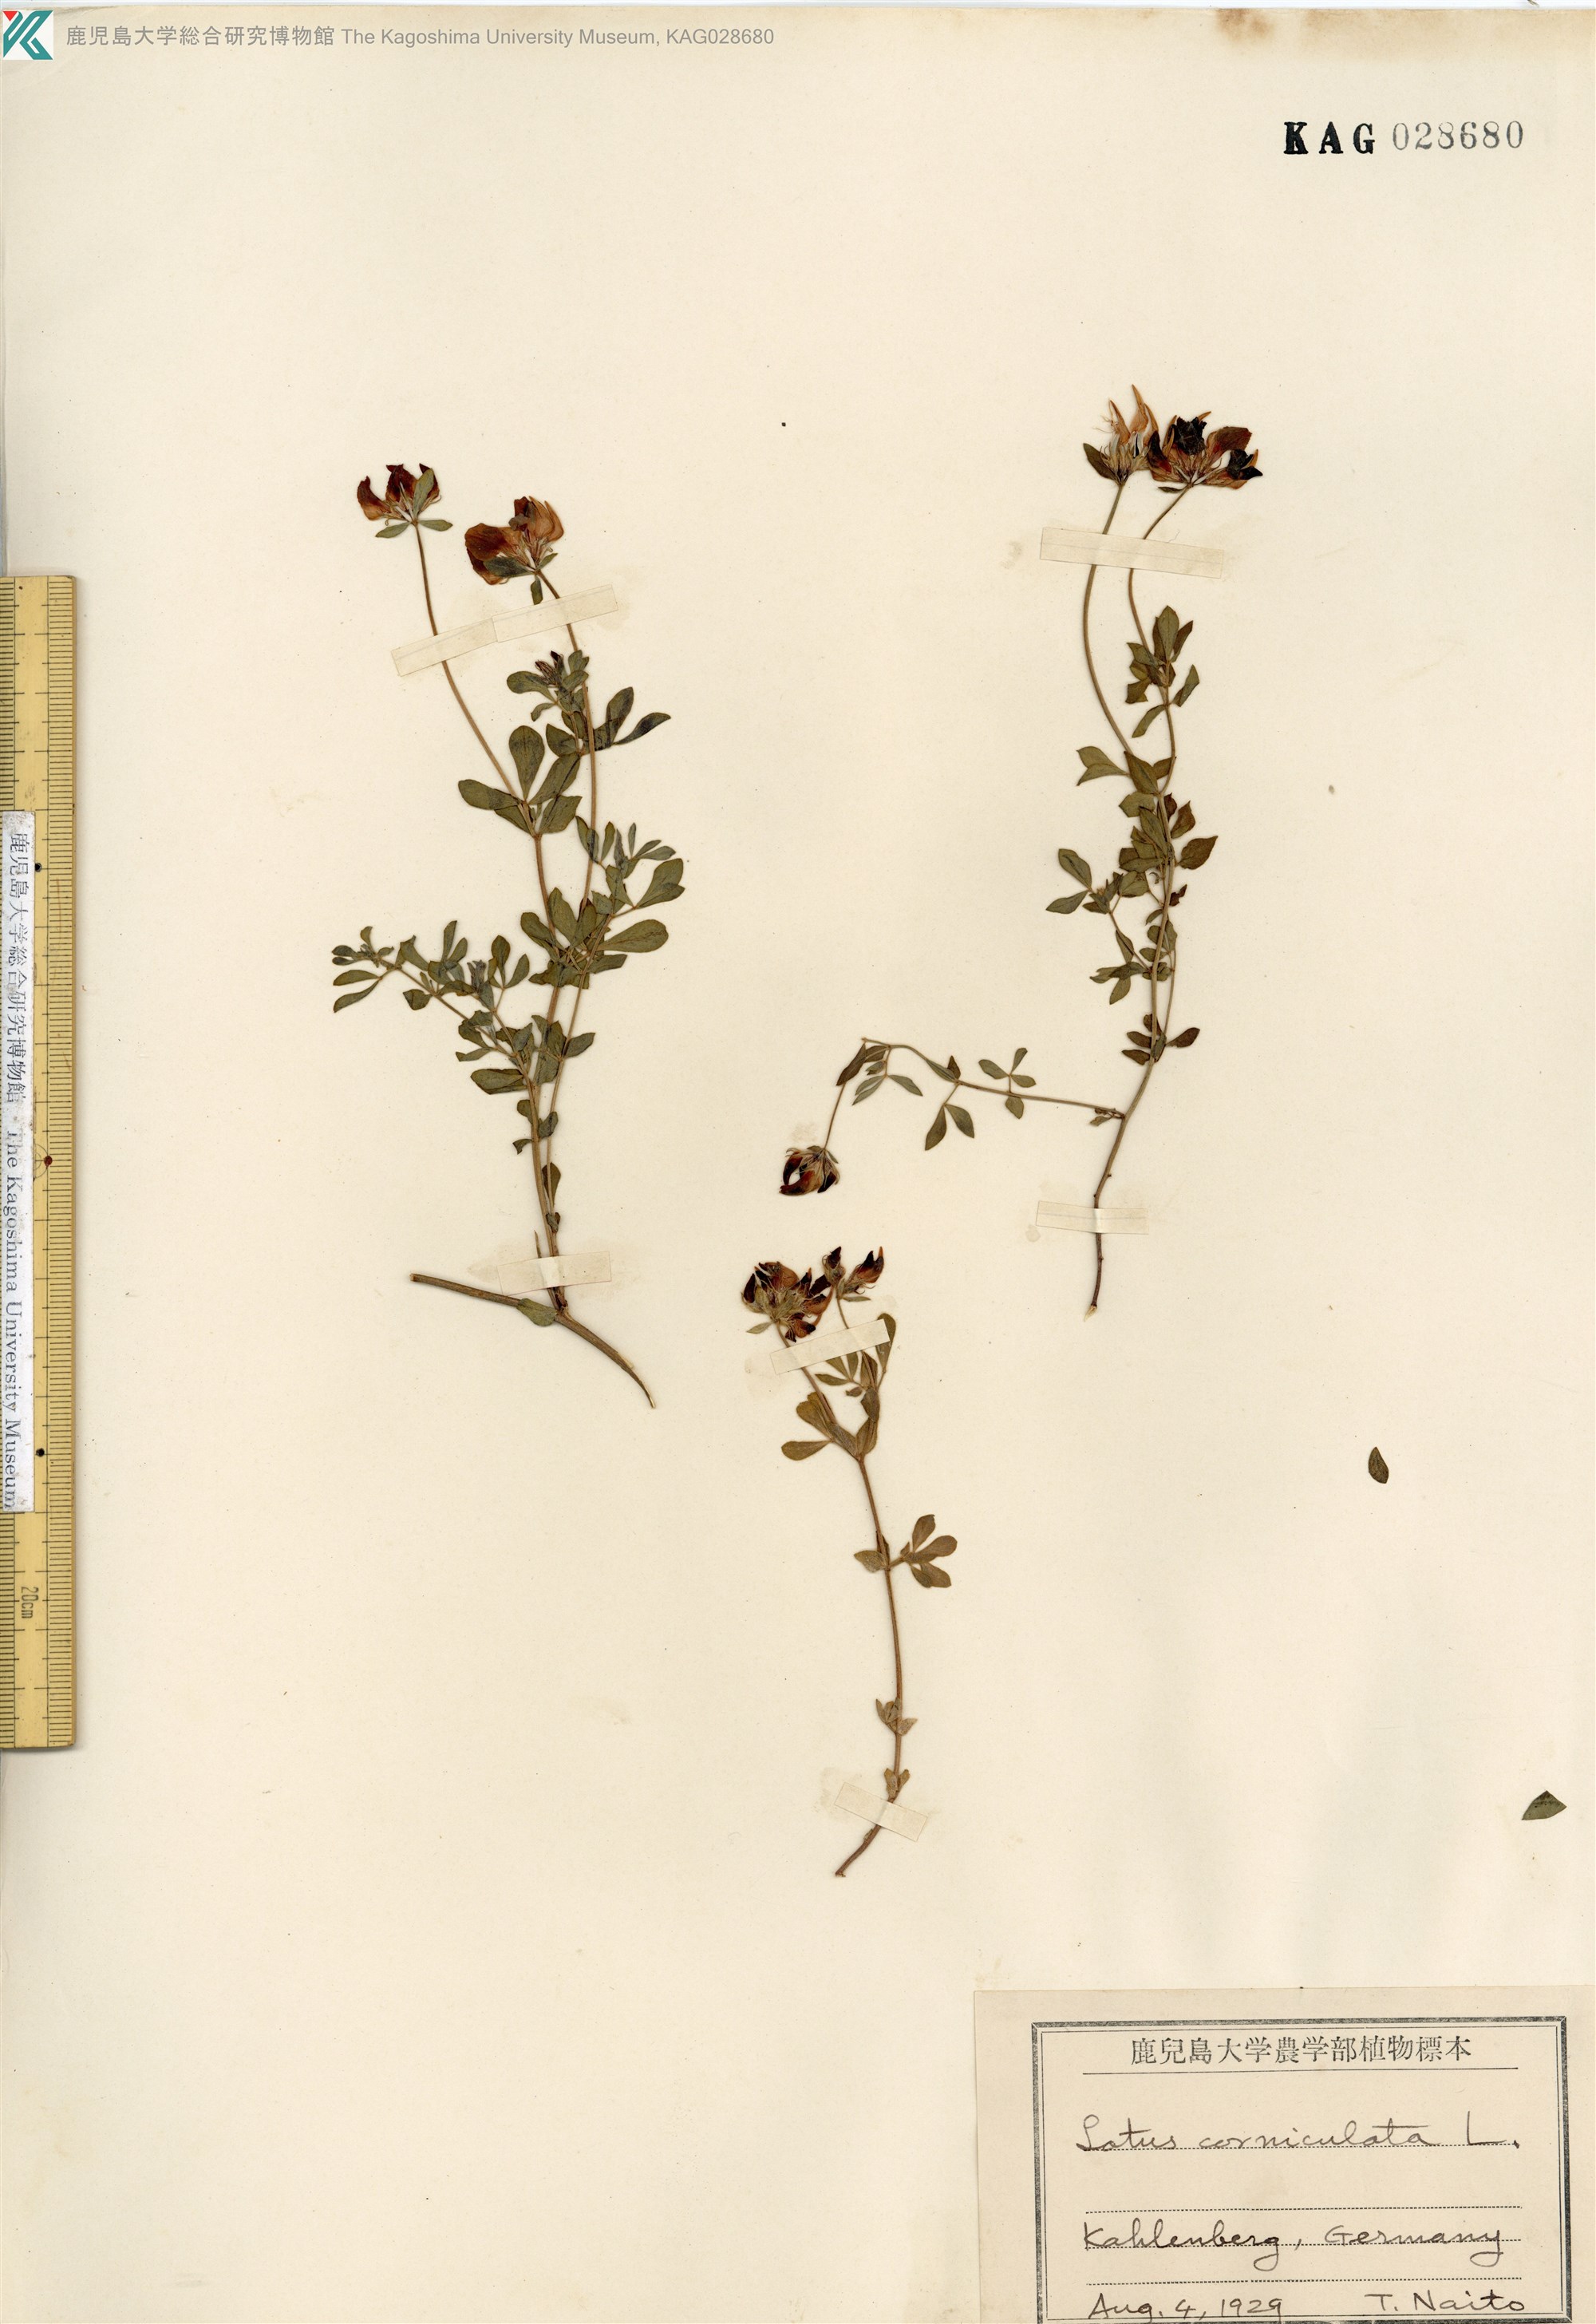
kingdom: Plantae
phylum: Tracheophyta
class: Magnoliopsida
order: Fabales
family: Fabaceae
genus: Lotus
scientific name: Lotus corniculatus
